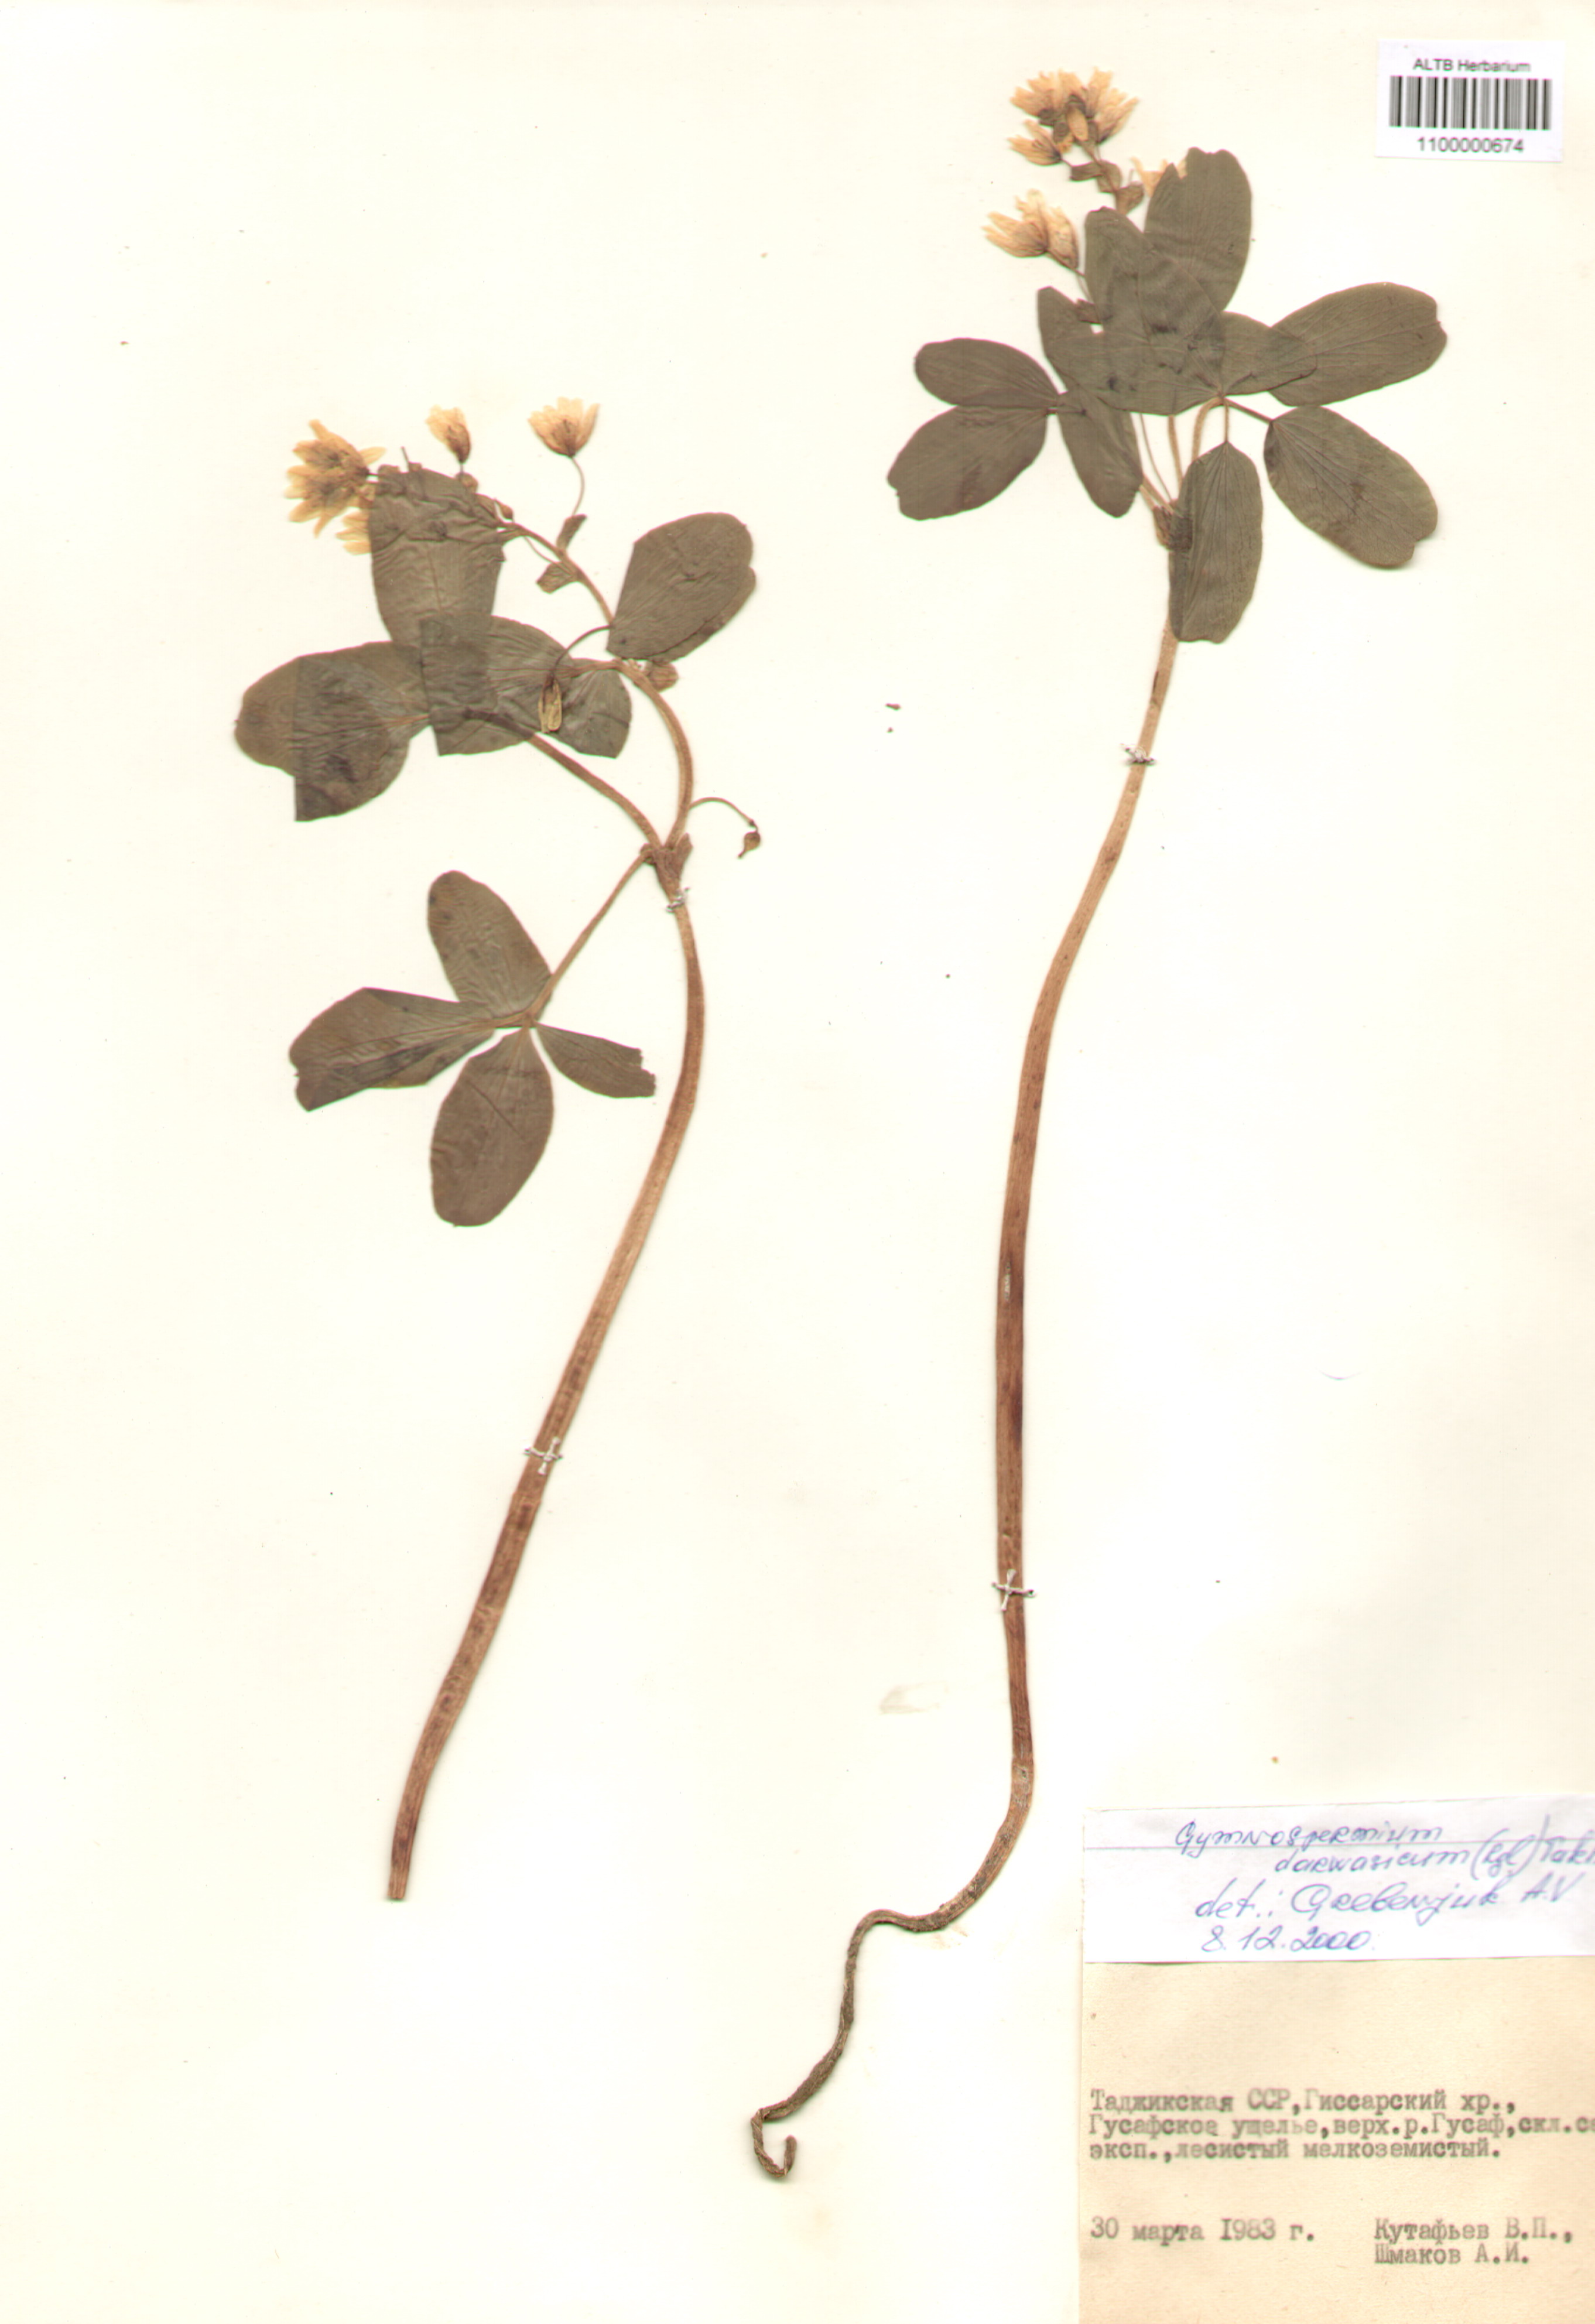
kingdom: Plantae
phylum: Tracheophyta
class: Magnoliopsida
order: Ranunculales
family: Berberidaceae
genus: Gymnospermium
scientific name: Gymnospermium darwasicum
